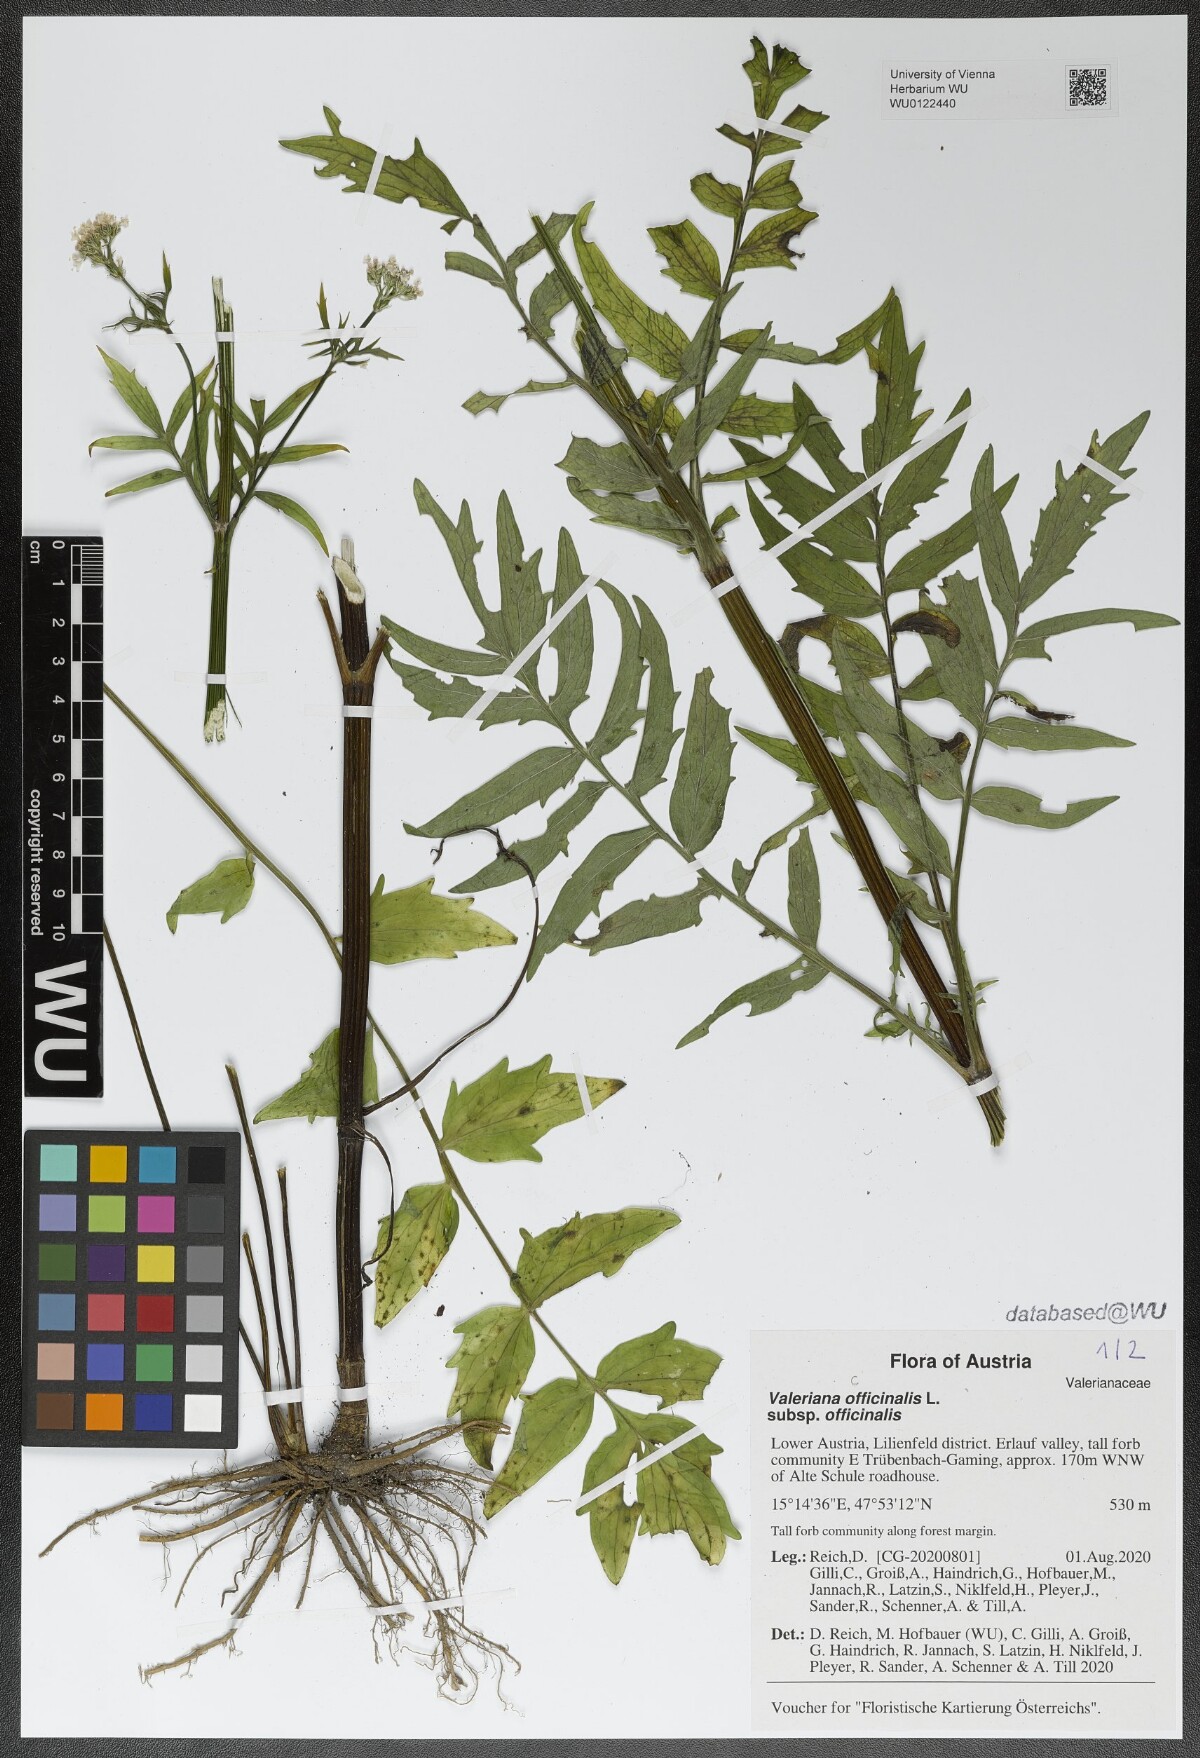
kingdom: Plantae
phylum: Tracheophyta
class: Magnoliopsida
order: Dipsacales
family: Caprifoliaceae
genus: Valeriana
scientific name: Valeriana officinalis
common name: Common valerian
